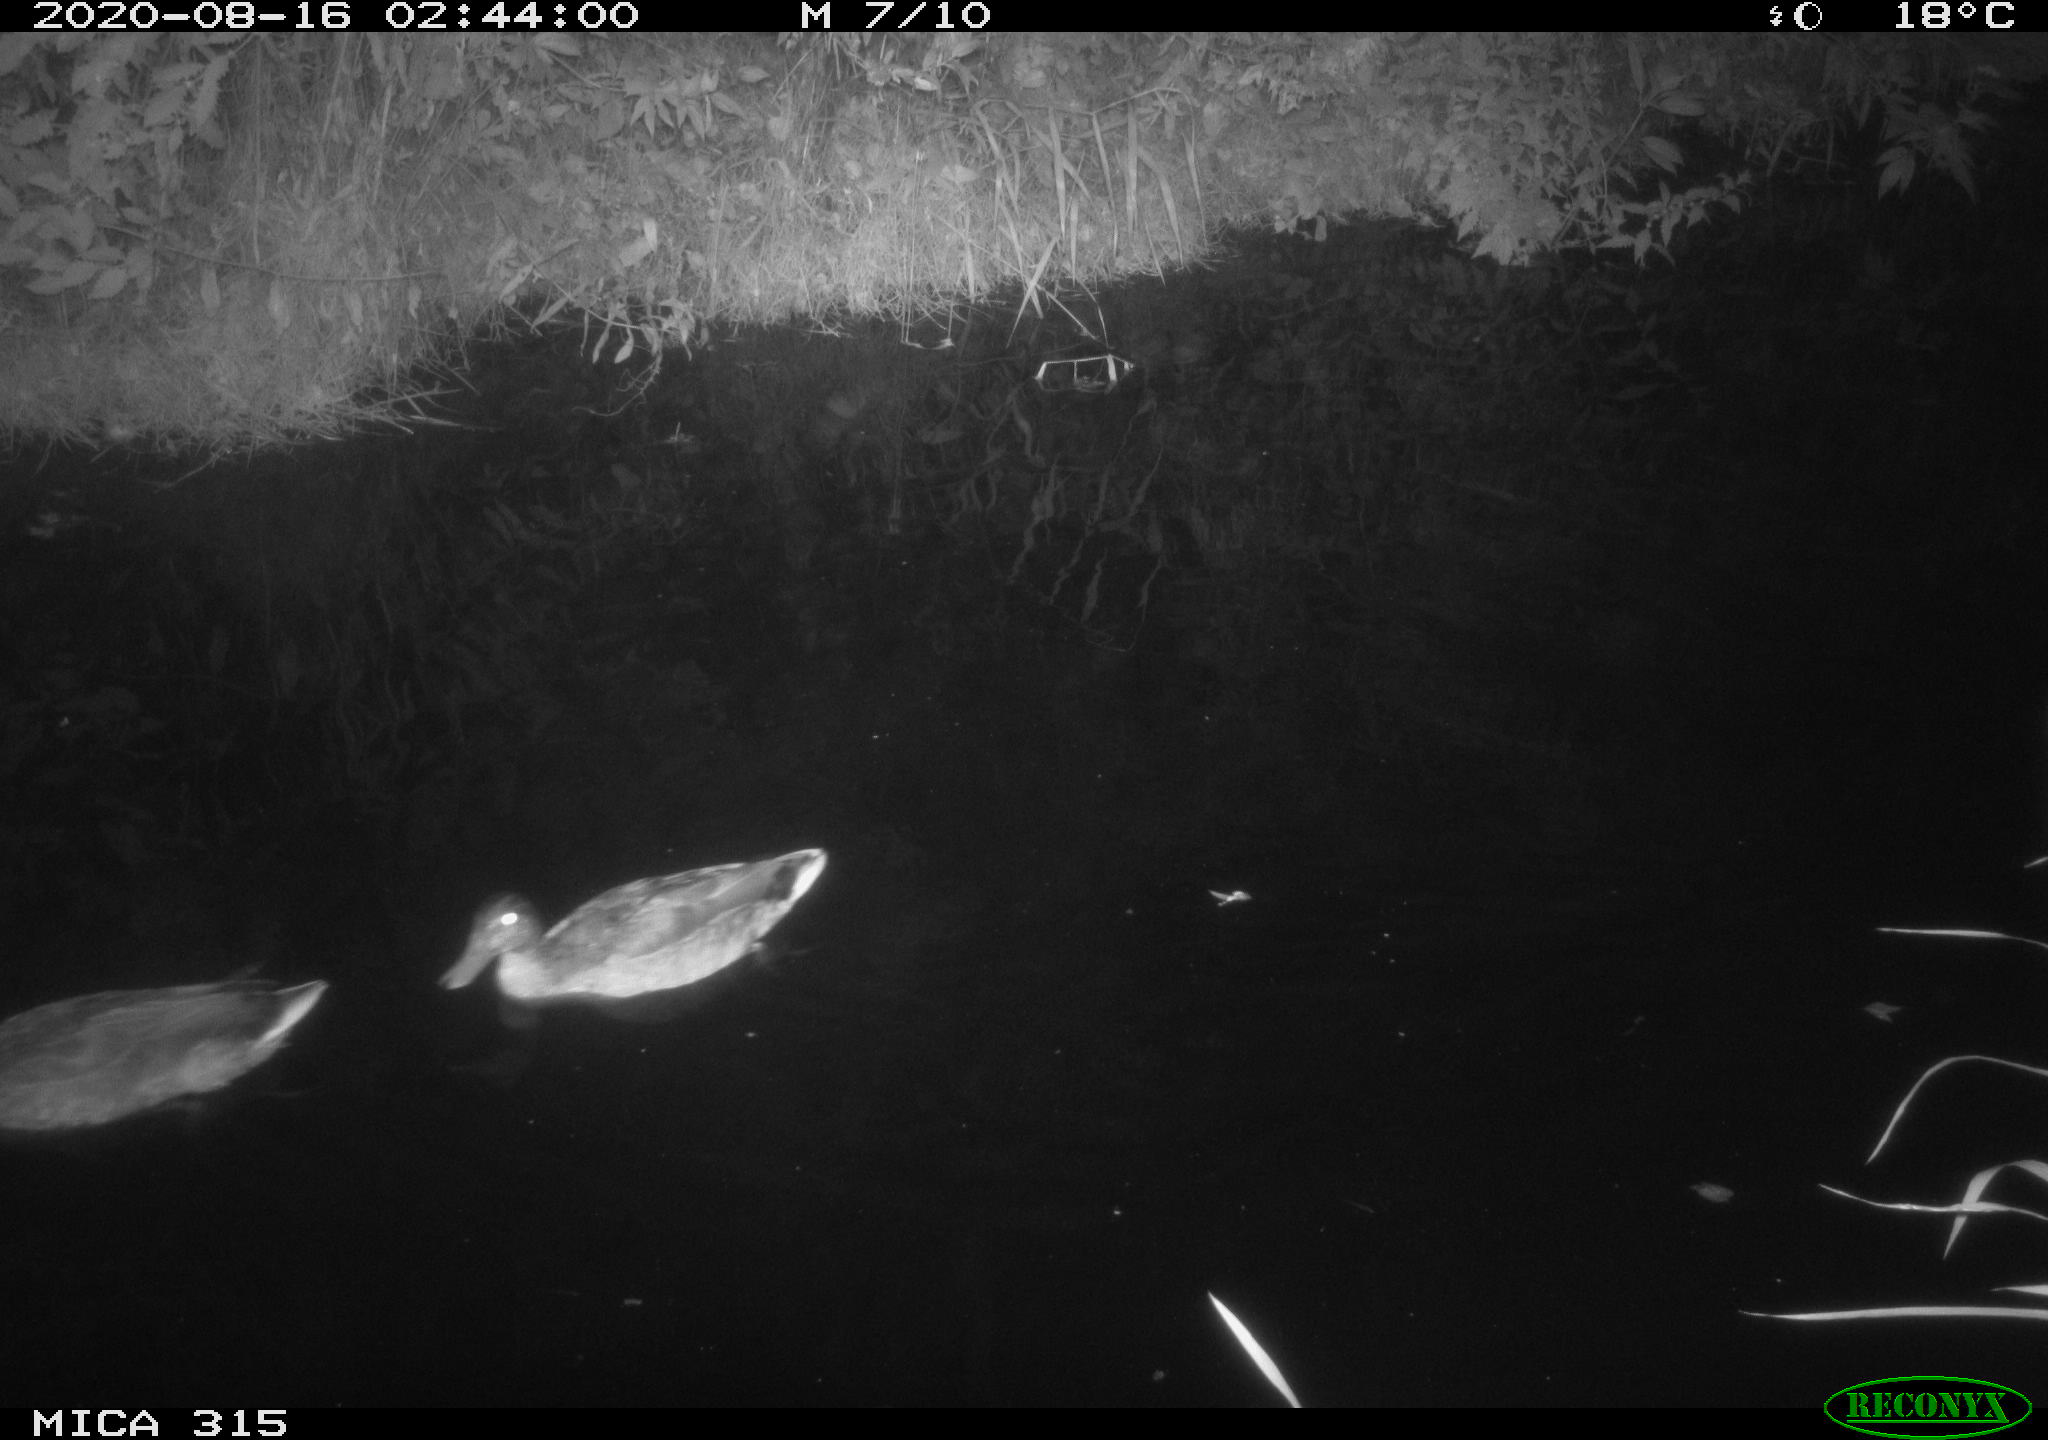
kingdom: Animalia
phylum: Chordata
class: Aves
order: Anseriformes
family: Anatidae
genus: Anas
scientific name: Anas platyrhynchos
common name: Mallard
